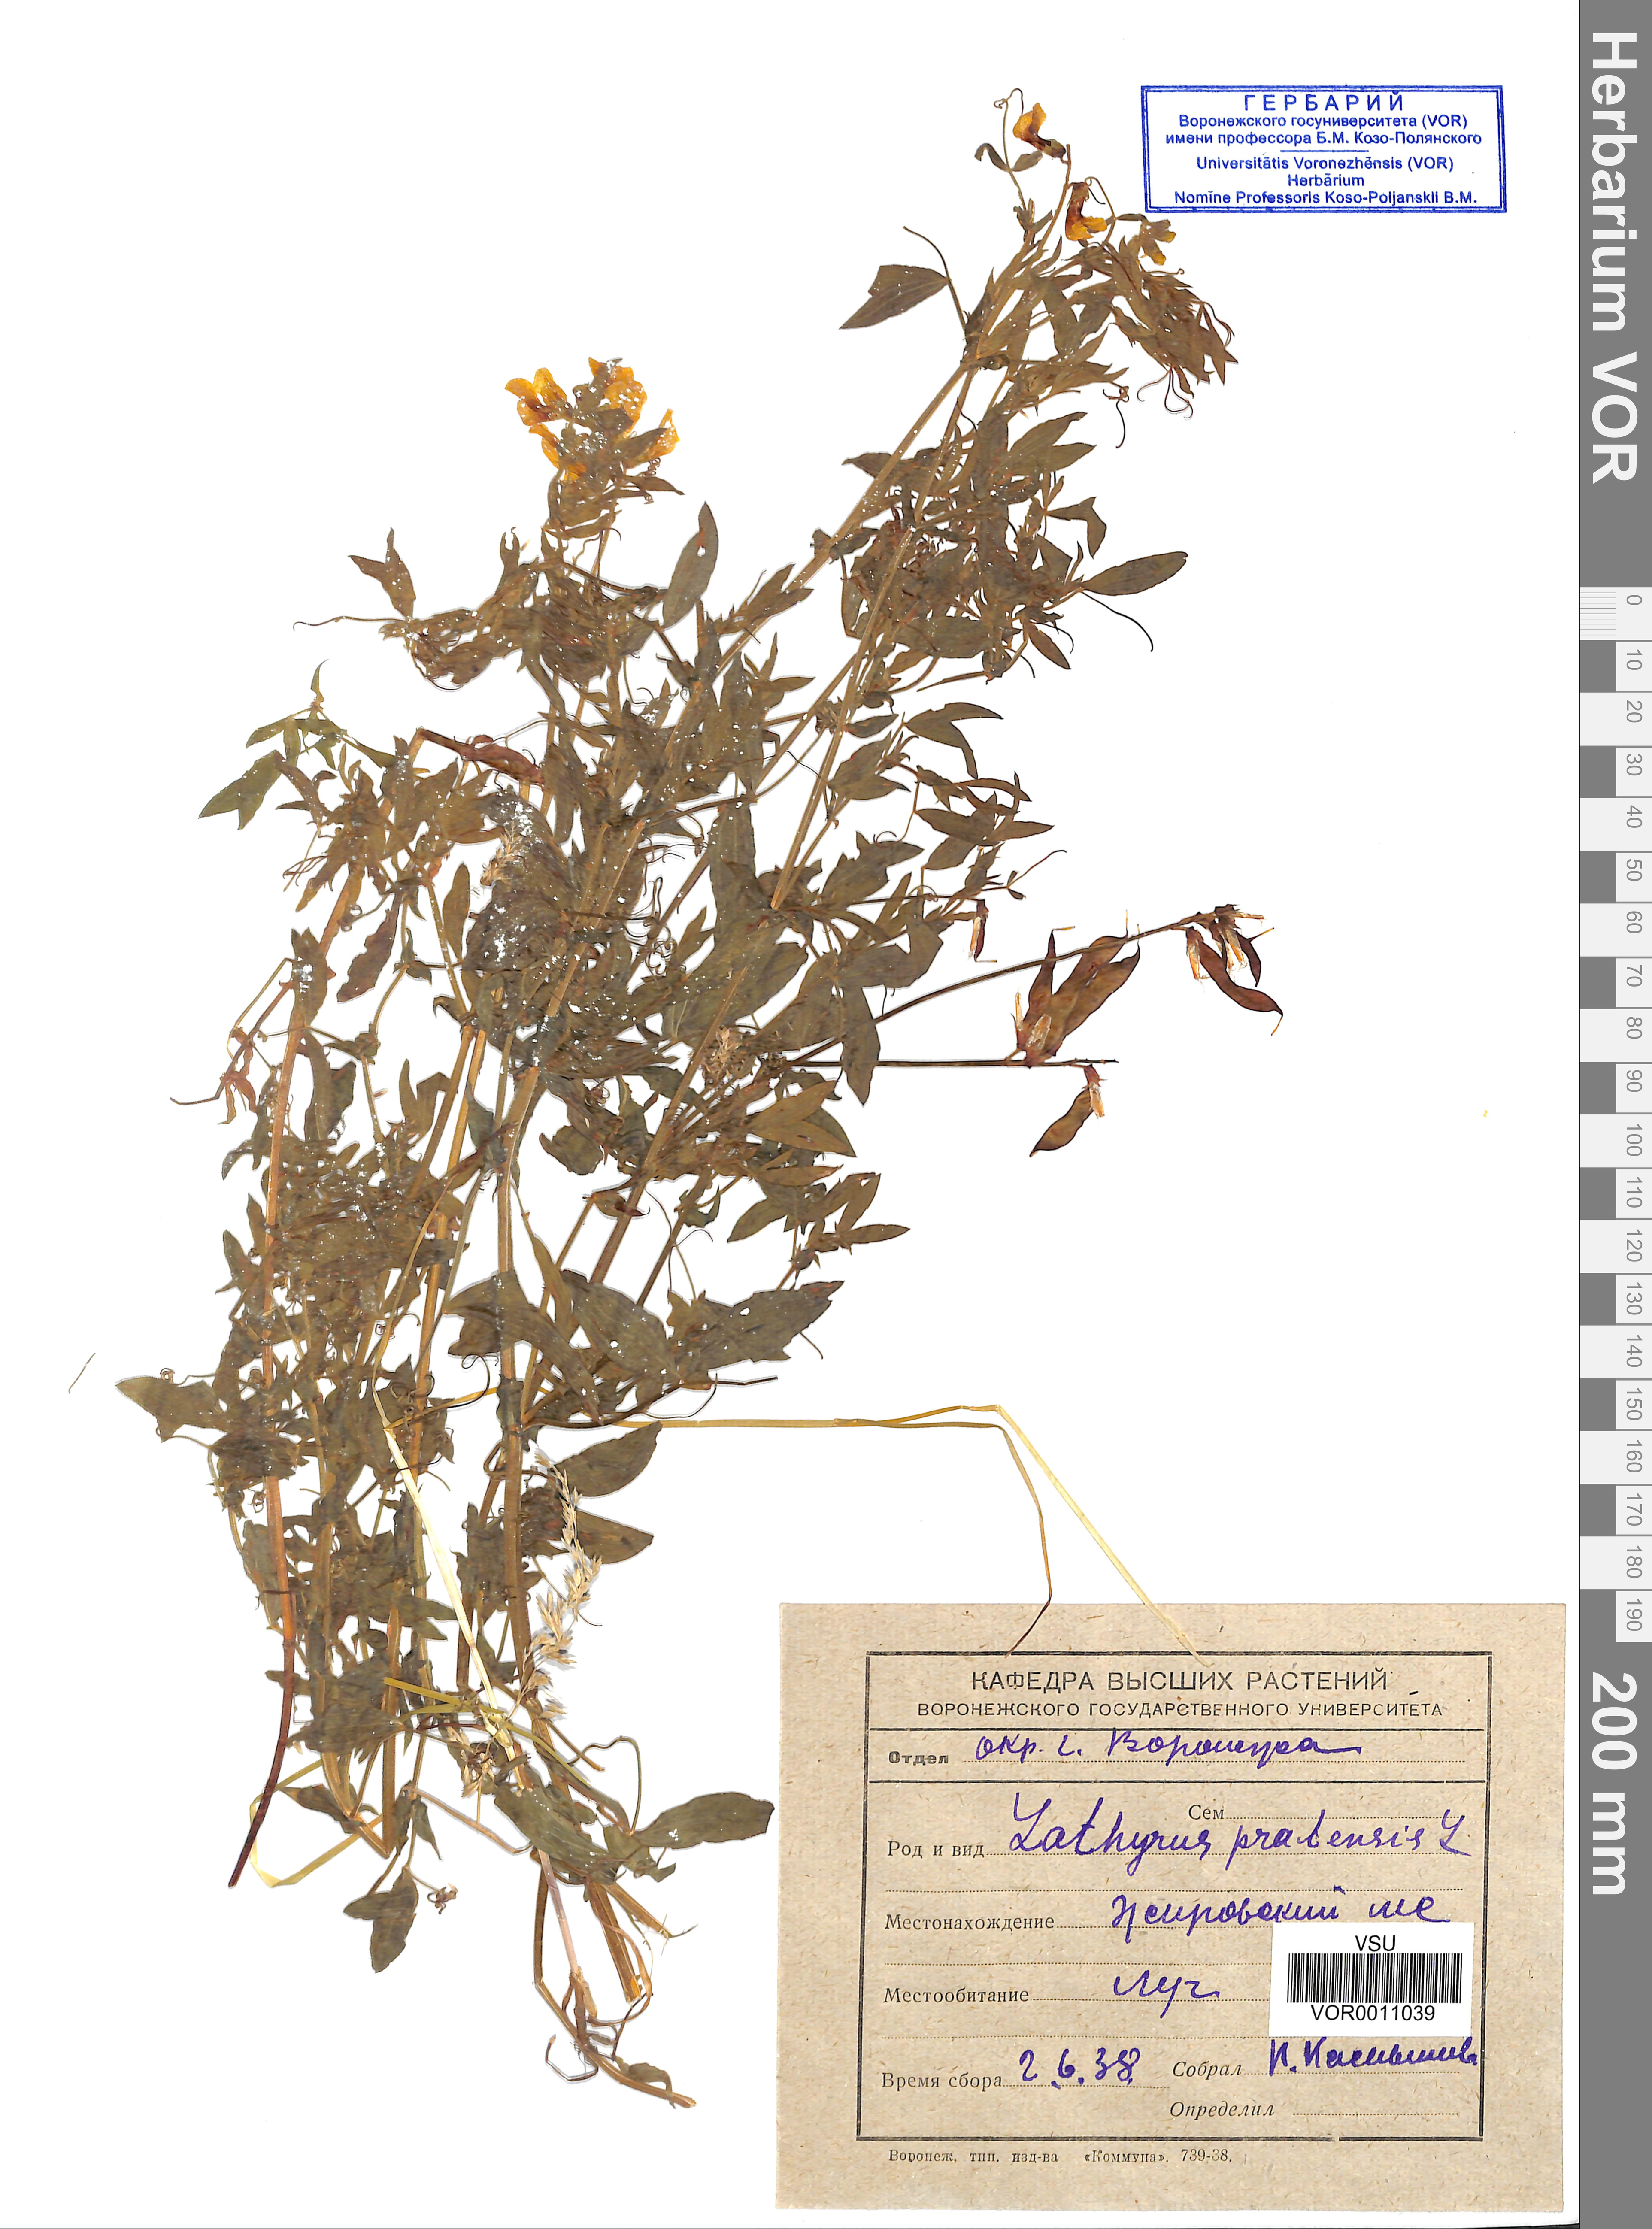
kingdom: Plantae
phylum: Tracheophyta
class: Magnoliopsida
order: Fabales
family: Fabaceae
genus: Lathyrus
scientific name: Lathyrus pratensis
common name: Meadow vetchling
